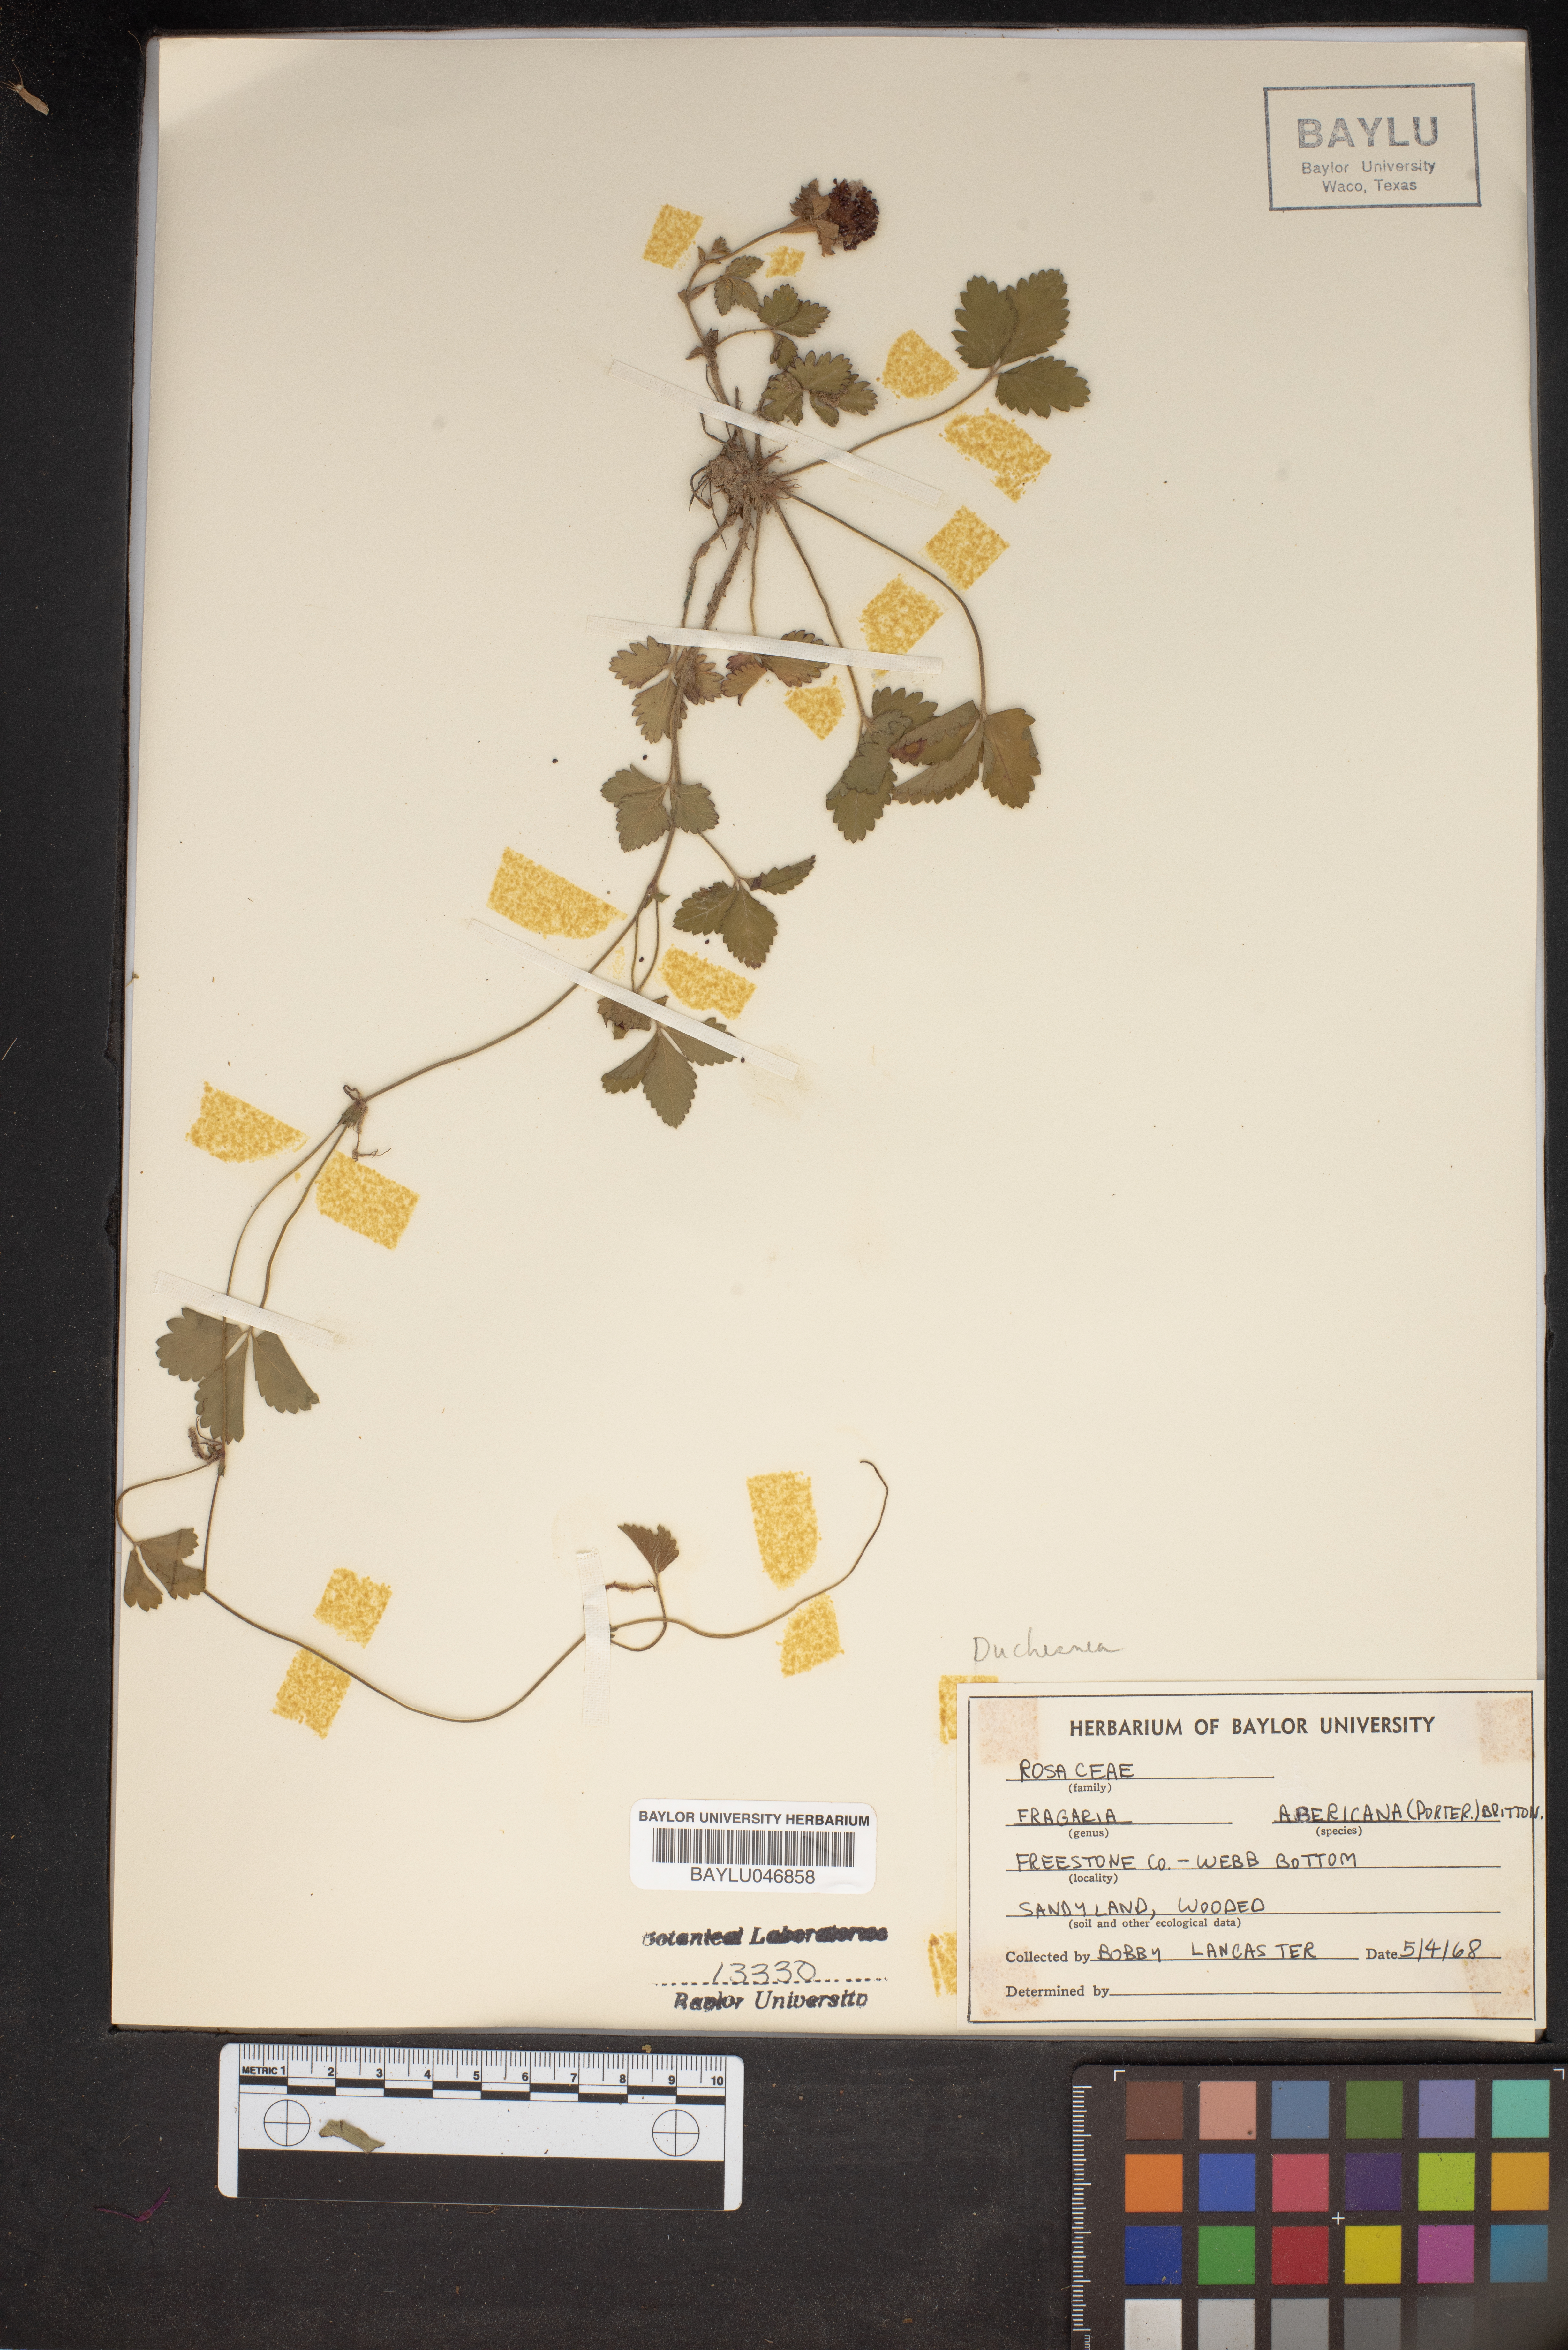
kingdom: Plantae
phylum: Tracheophyta
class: Magnoliopsida
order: Rosales
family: Rosaceae
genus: Fragaria
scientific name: Fragaria vesca
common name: Wild strawberry
